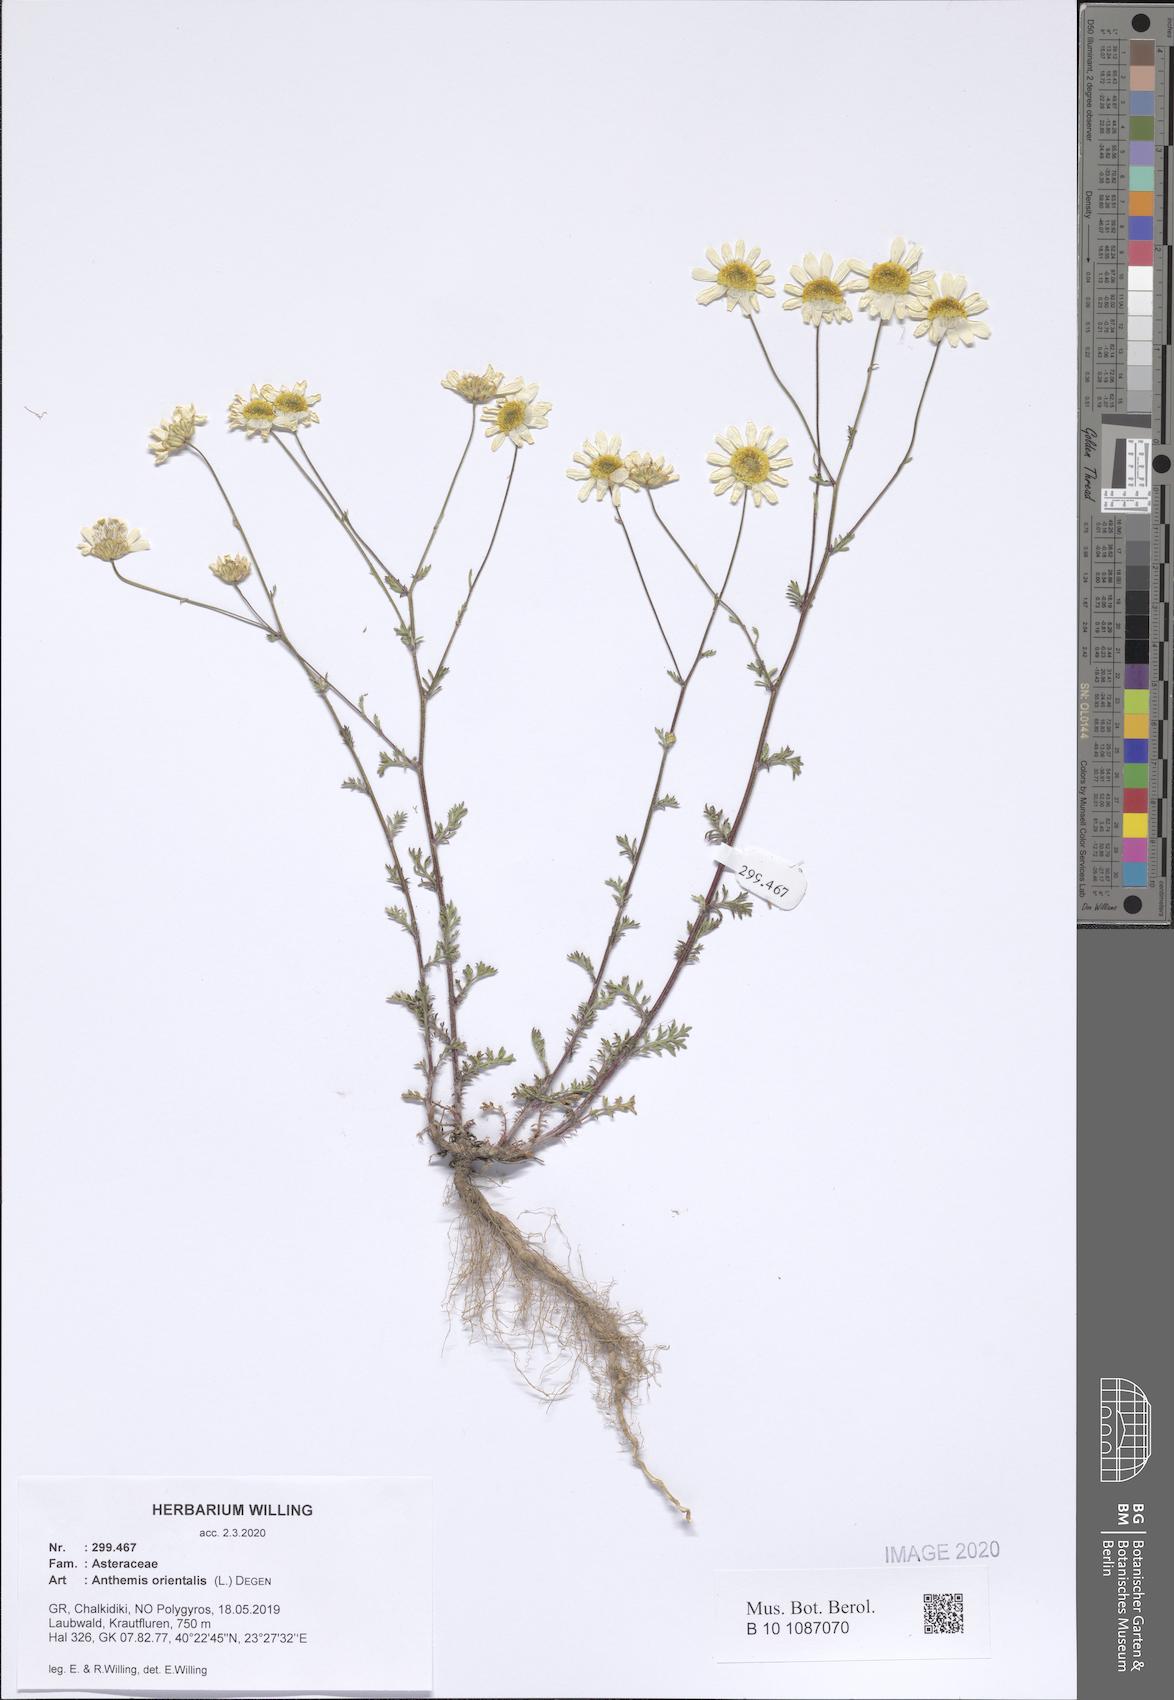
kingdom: Plantae
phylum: Tracheophyta
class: Magnoliopsida
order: Asterales
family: Asteraceae
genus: Anthemis
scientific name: Anthemis orientalis
